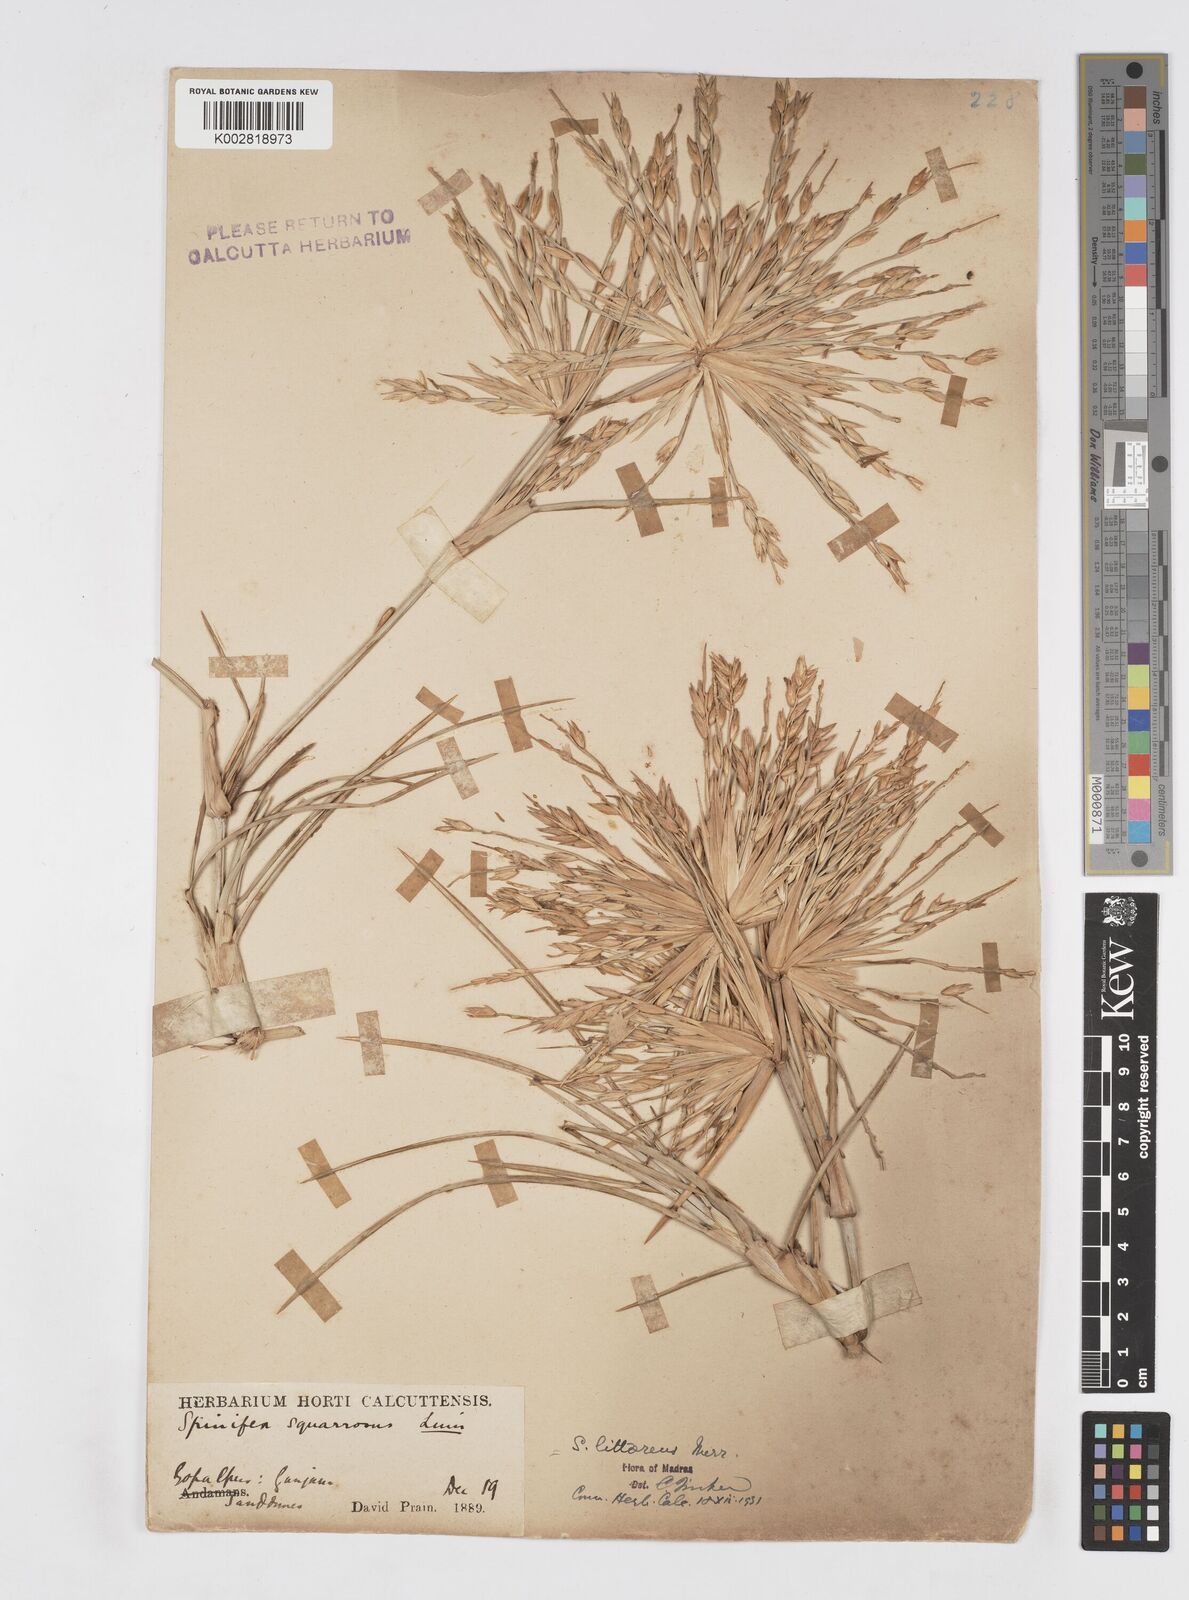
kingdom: Plantae
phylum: Tracheophyta
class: Liliopsida
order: Poales
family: Poaceae
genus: Spinifex
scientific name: Spinifex littoreus
